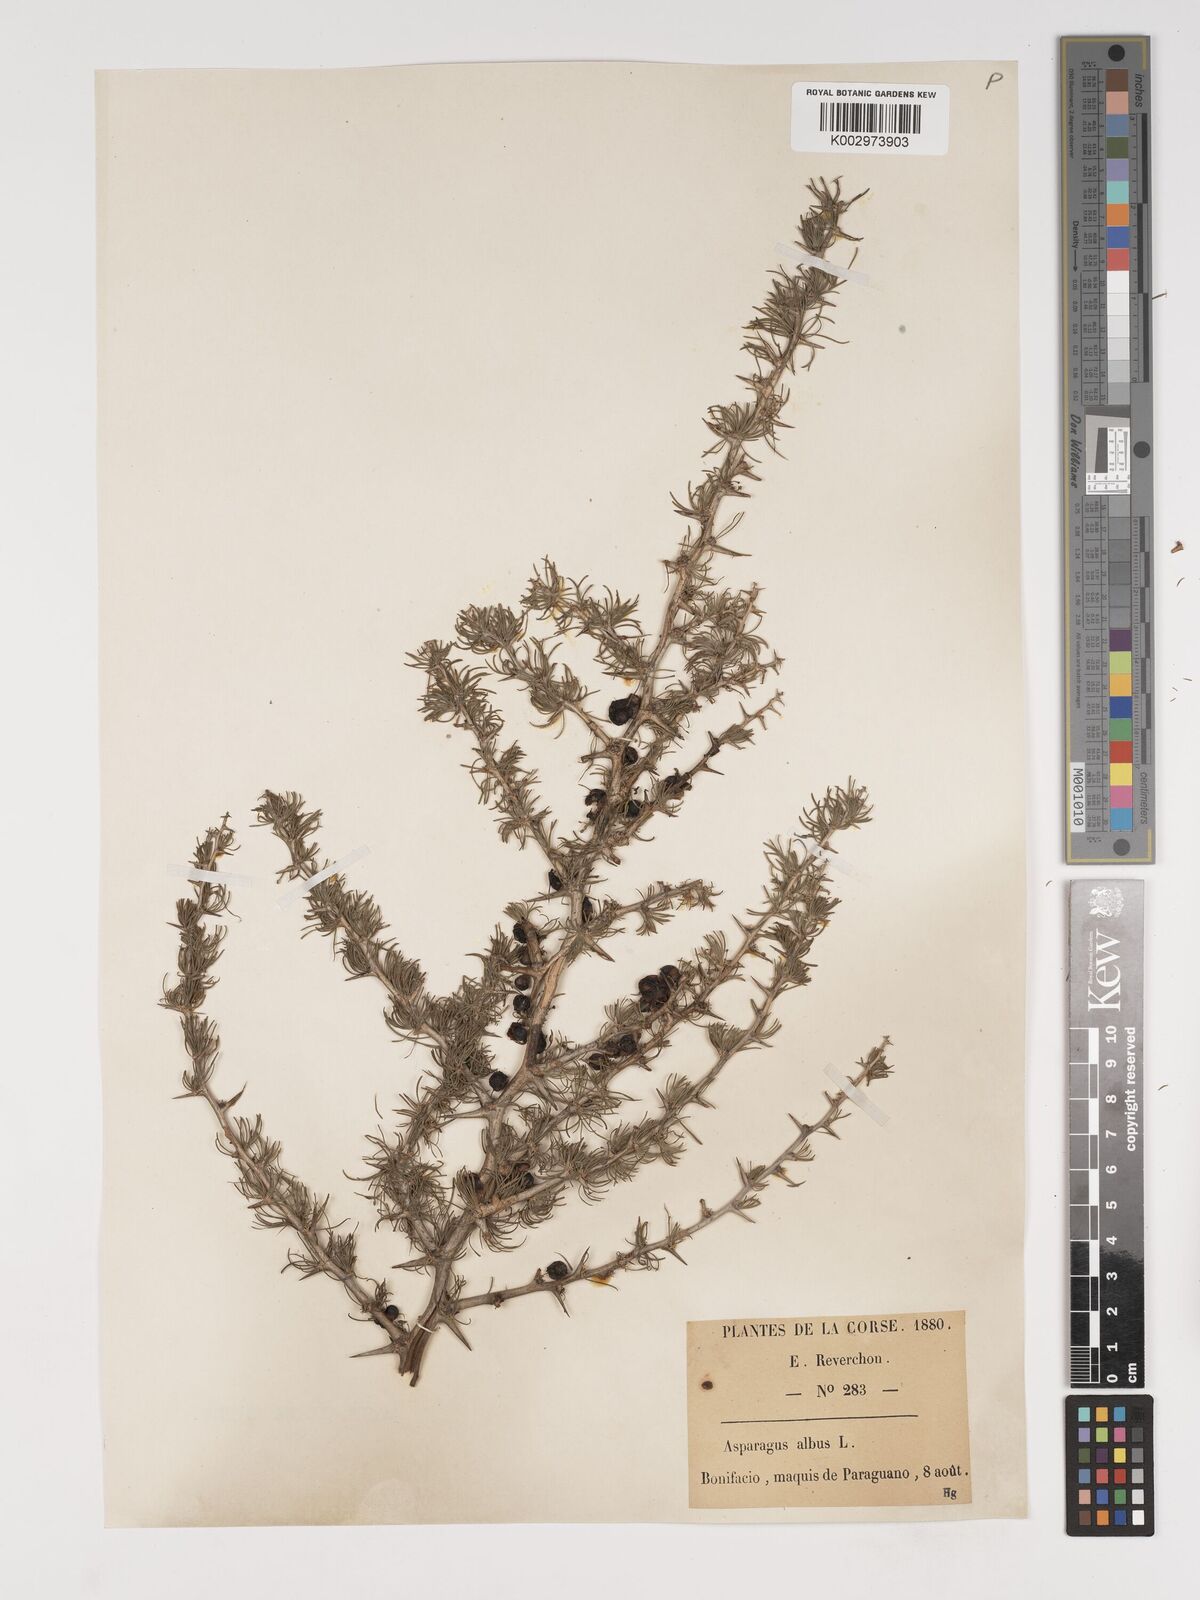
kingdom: Plantae
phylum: Tracheophyta
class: Liliopsida
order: Asparagales
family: Asparagaceae
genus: Asparagus
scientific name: Asparagus albus
